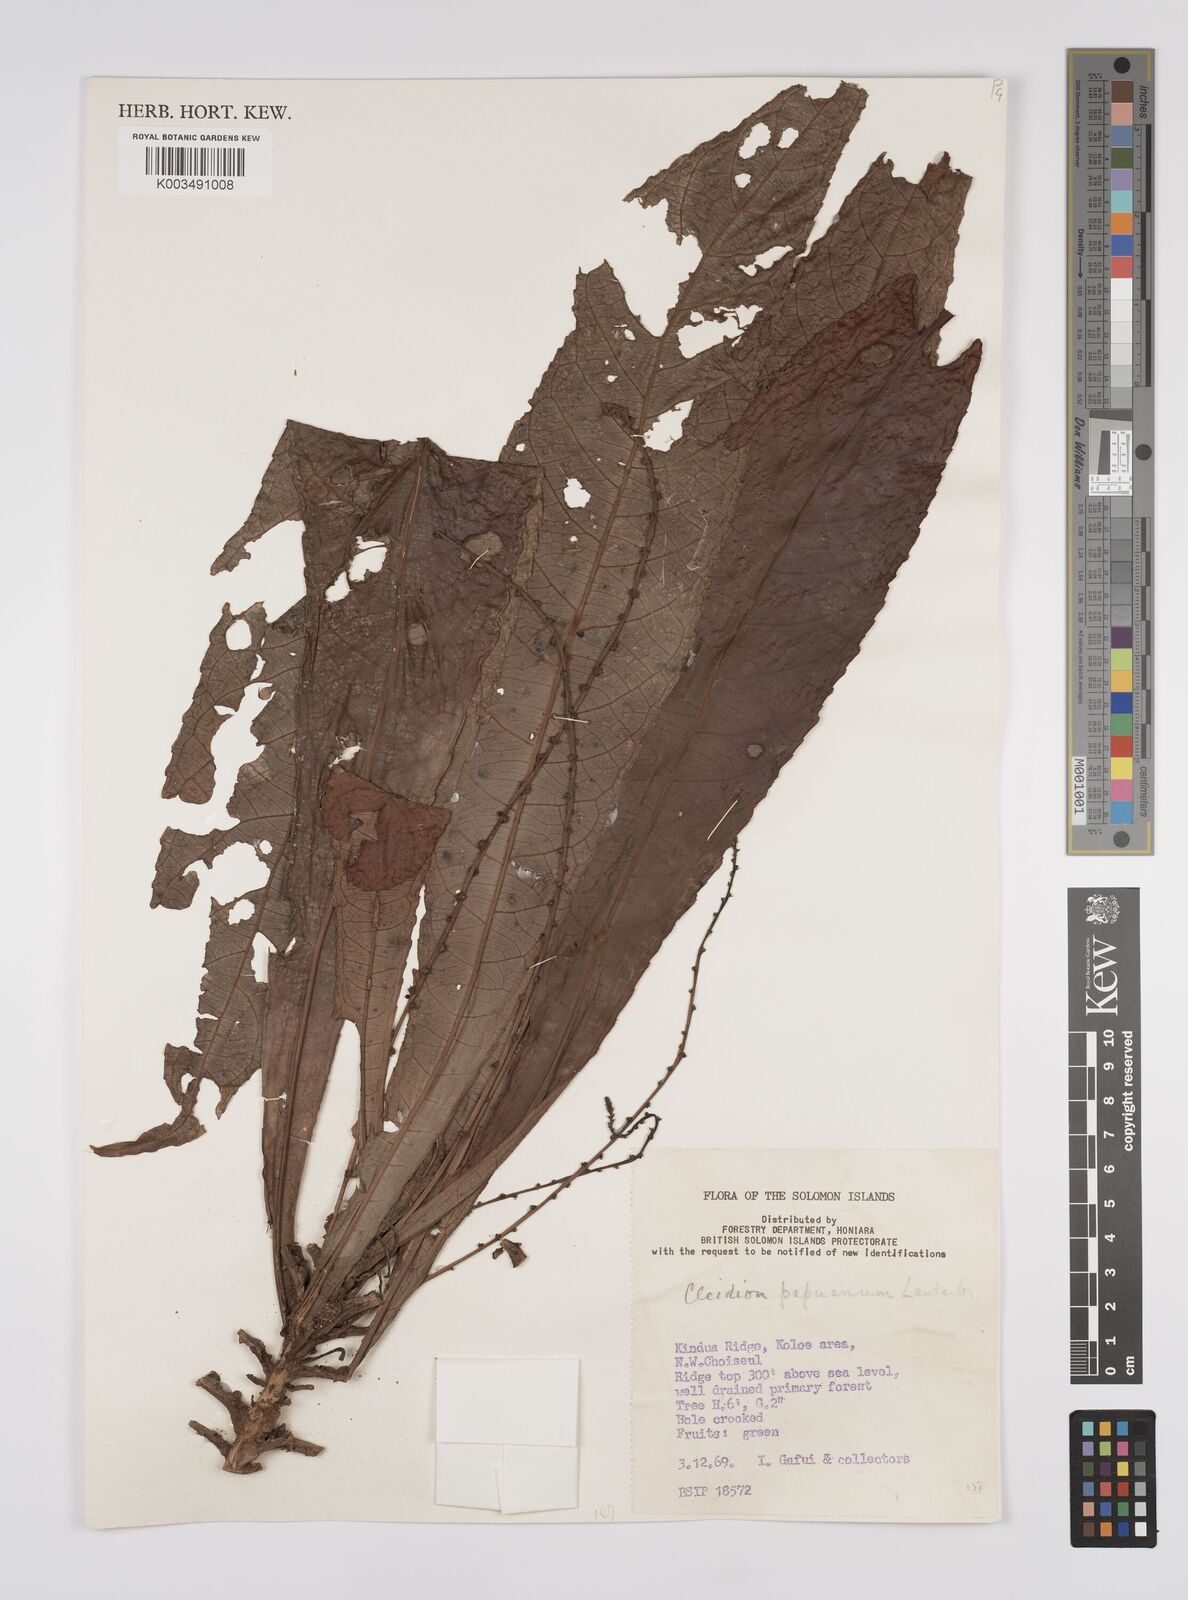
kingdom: Plantae
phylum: Tracheophyta
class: Magnoliopsida
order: Malpighiales
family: Euphorbiaceae
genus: Cleidion
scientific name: Cleidion papuanum
